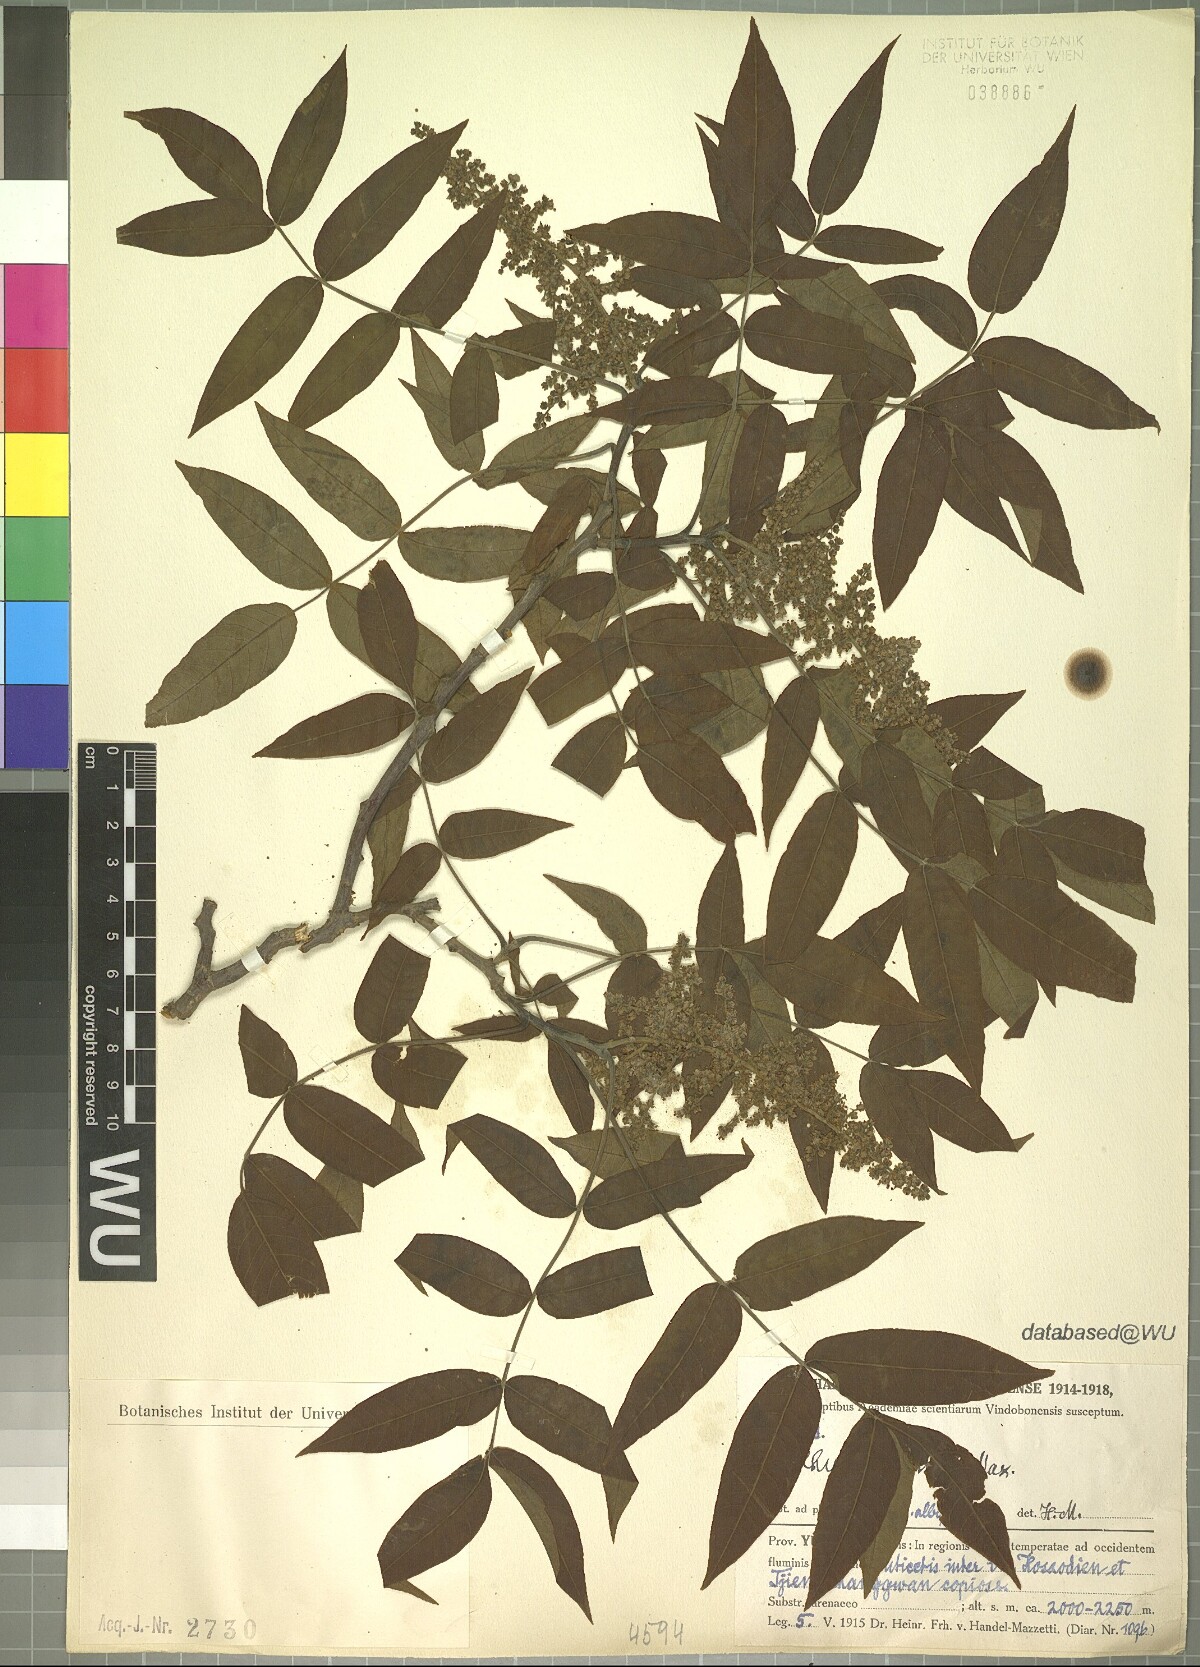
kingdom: Plantae
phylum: Tracheophyta
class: Magnoliopsida
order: Sapindales
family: Anacardiaceae
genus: Rhus
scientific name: Rhus potaninii
